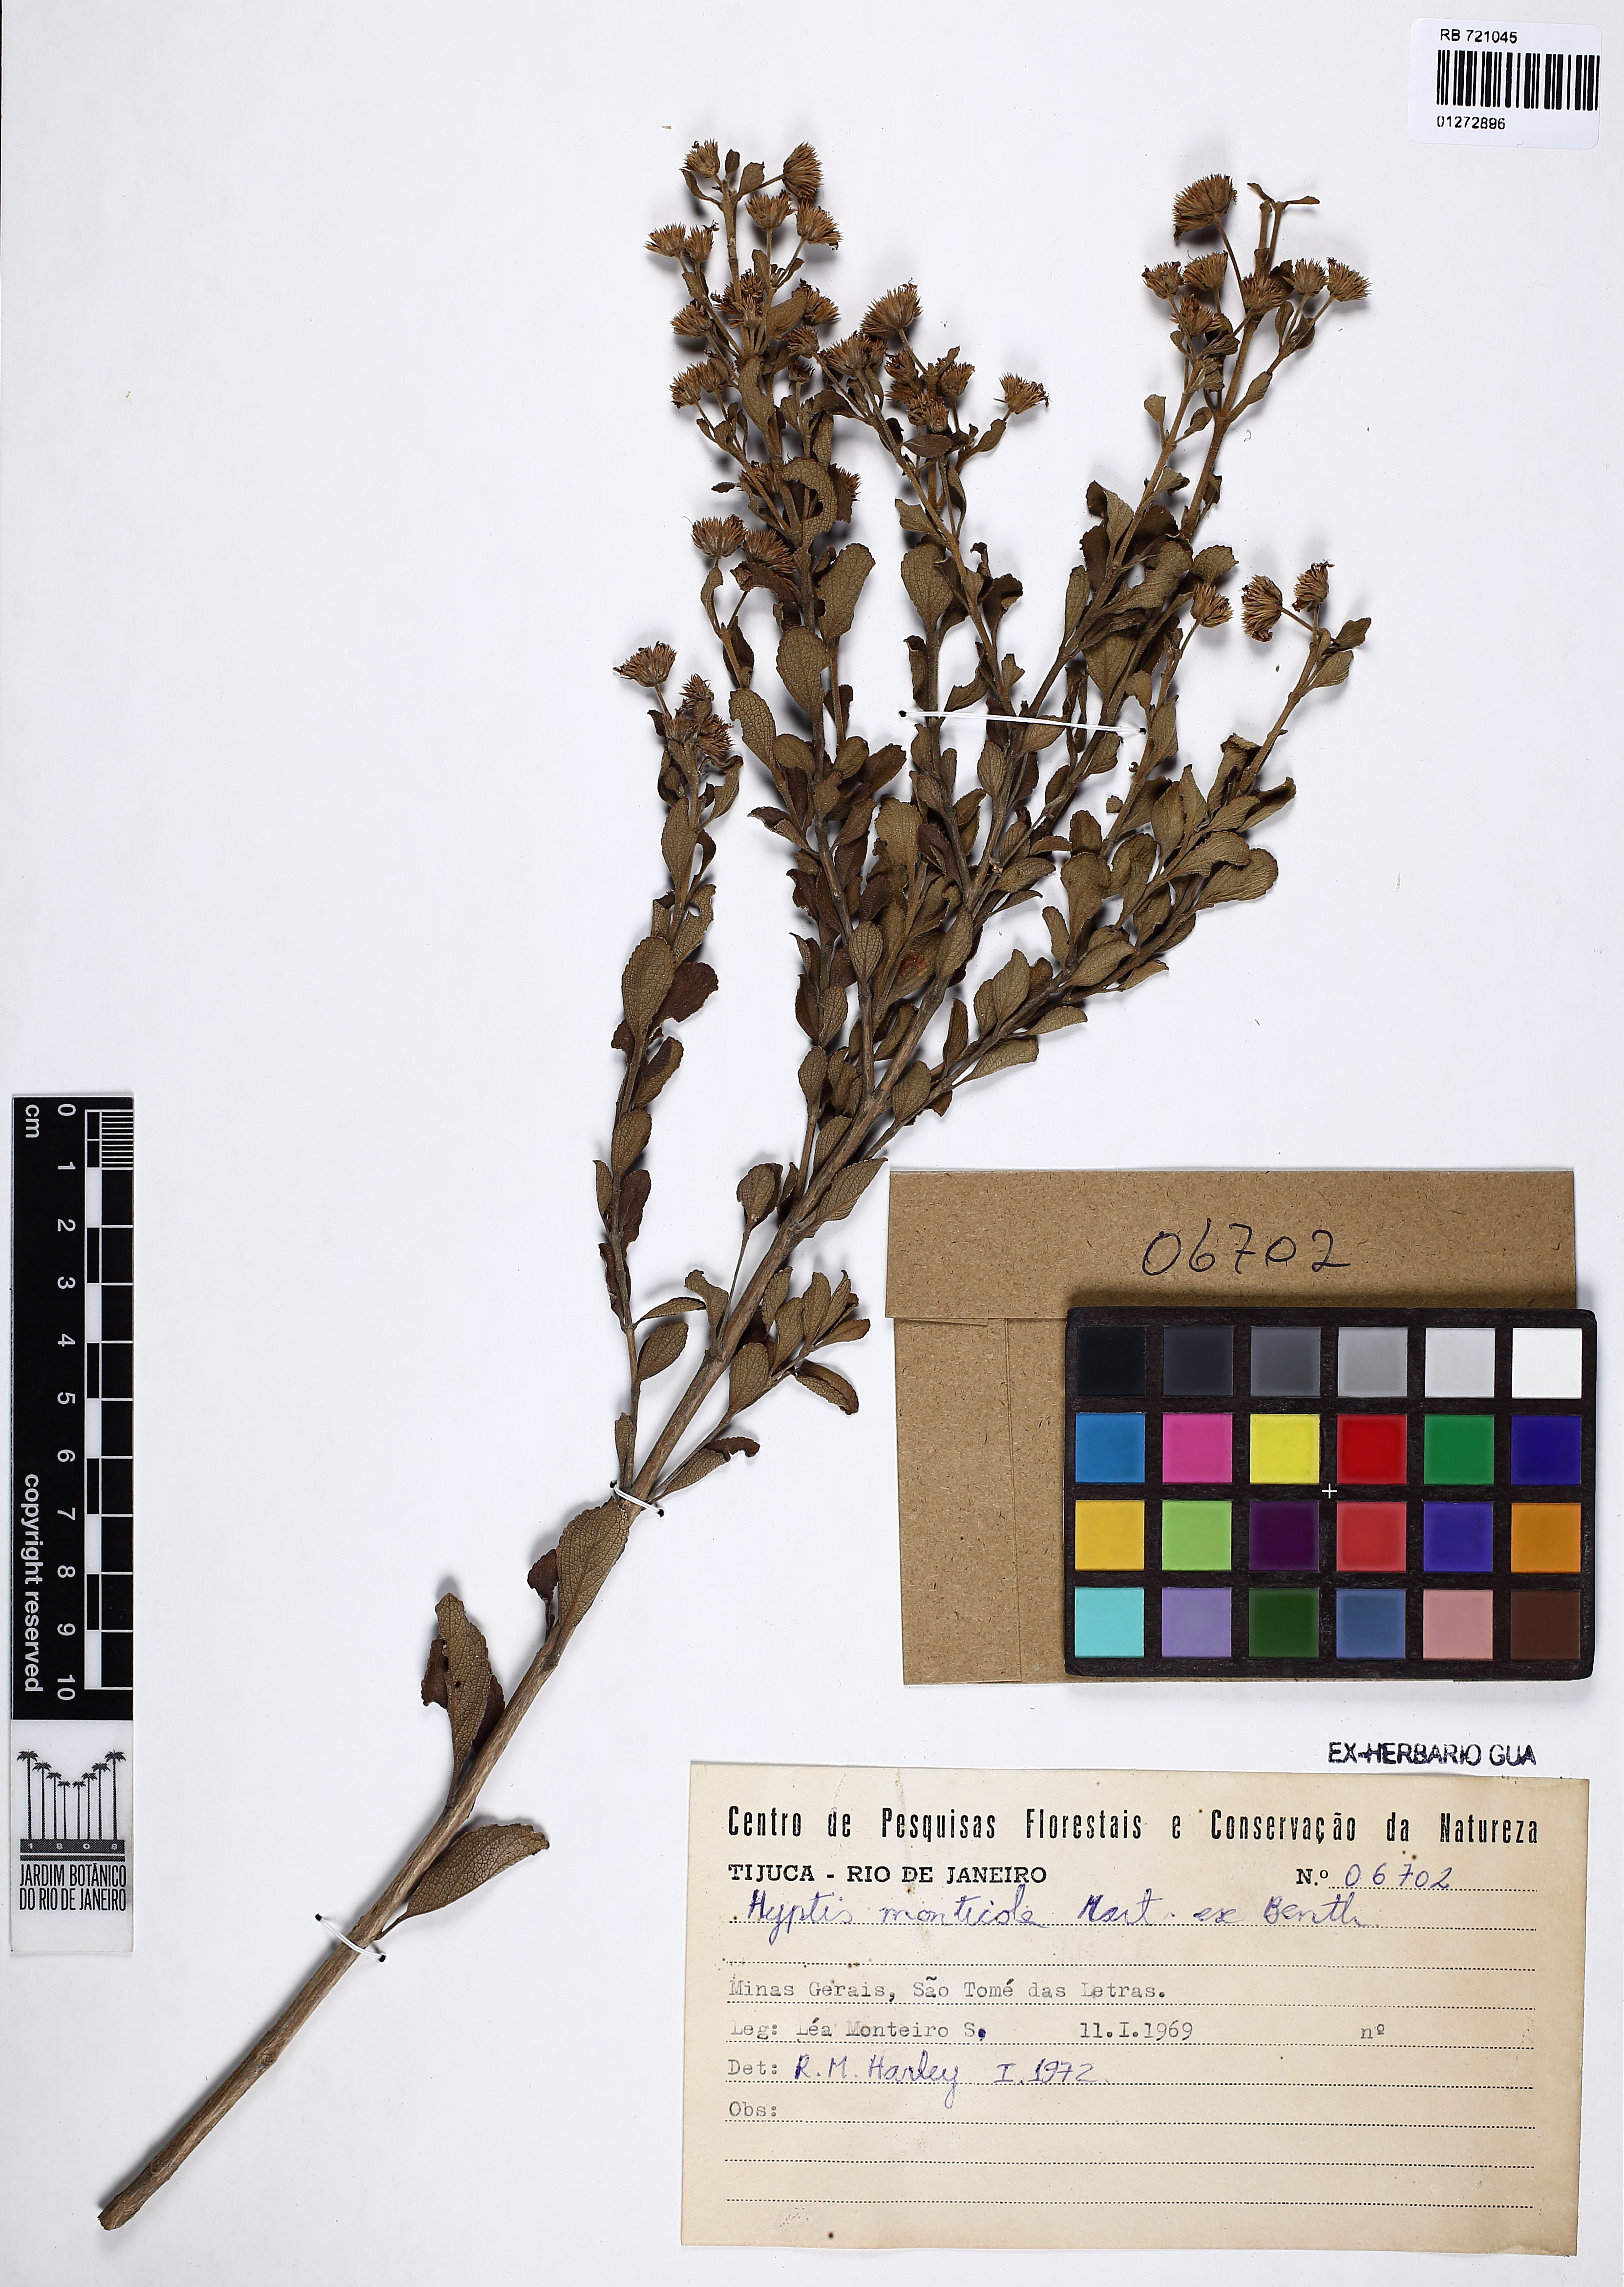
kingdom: Plantae
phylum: Tracheophyta
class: Magnoliopsida
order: Lamiales
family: Lamiaceae
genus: Hyptis
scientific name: Hyptis monticola
